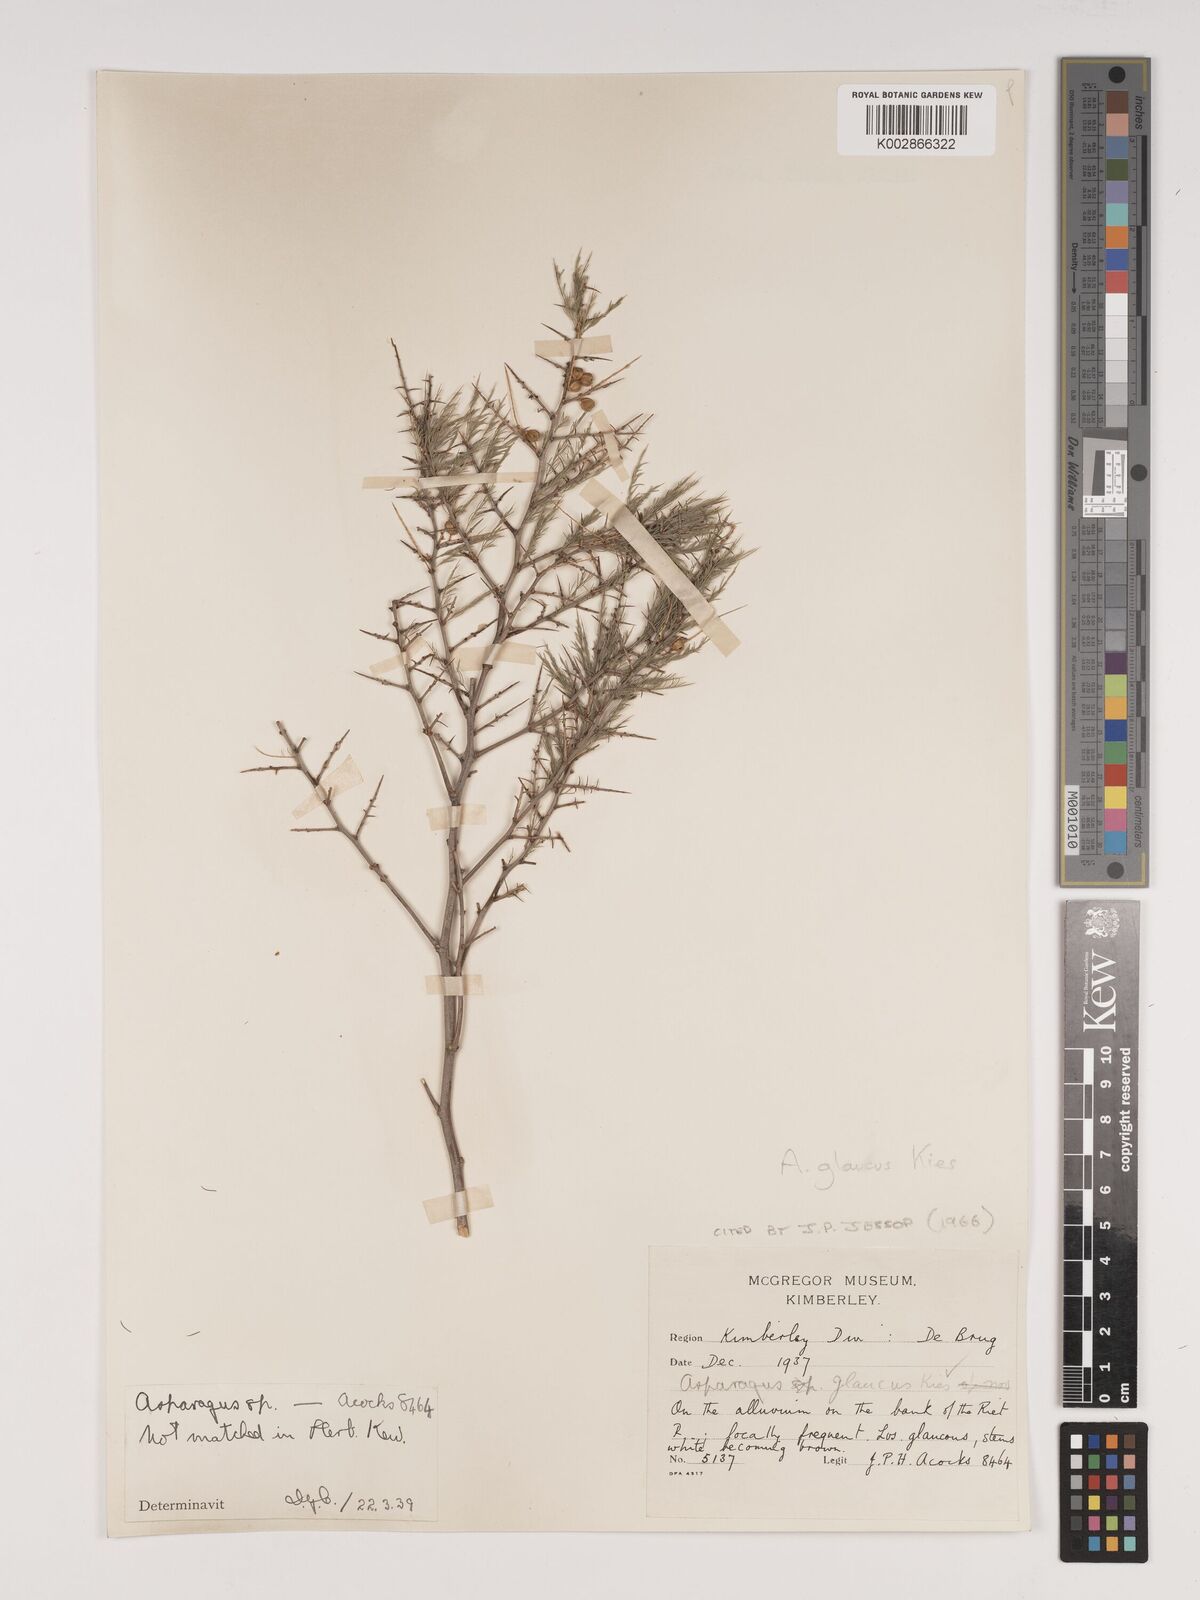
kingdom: Plantae
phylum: Tracheophyta
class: Liliopsida
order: Asparagales
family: Asparagaceae
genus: Asparagus
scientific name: Asparagus glaucus
